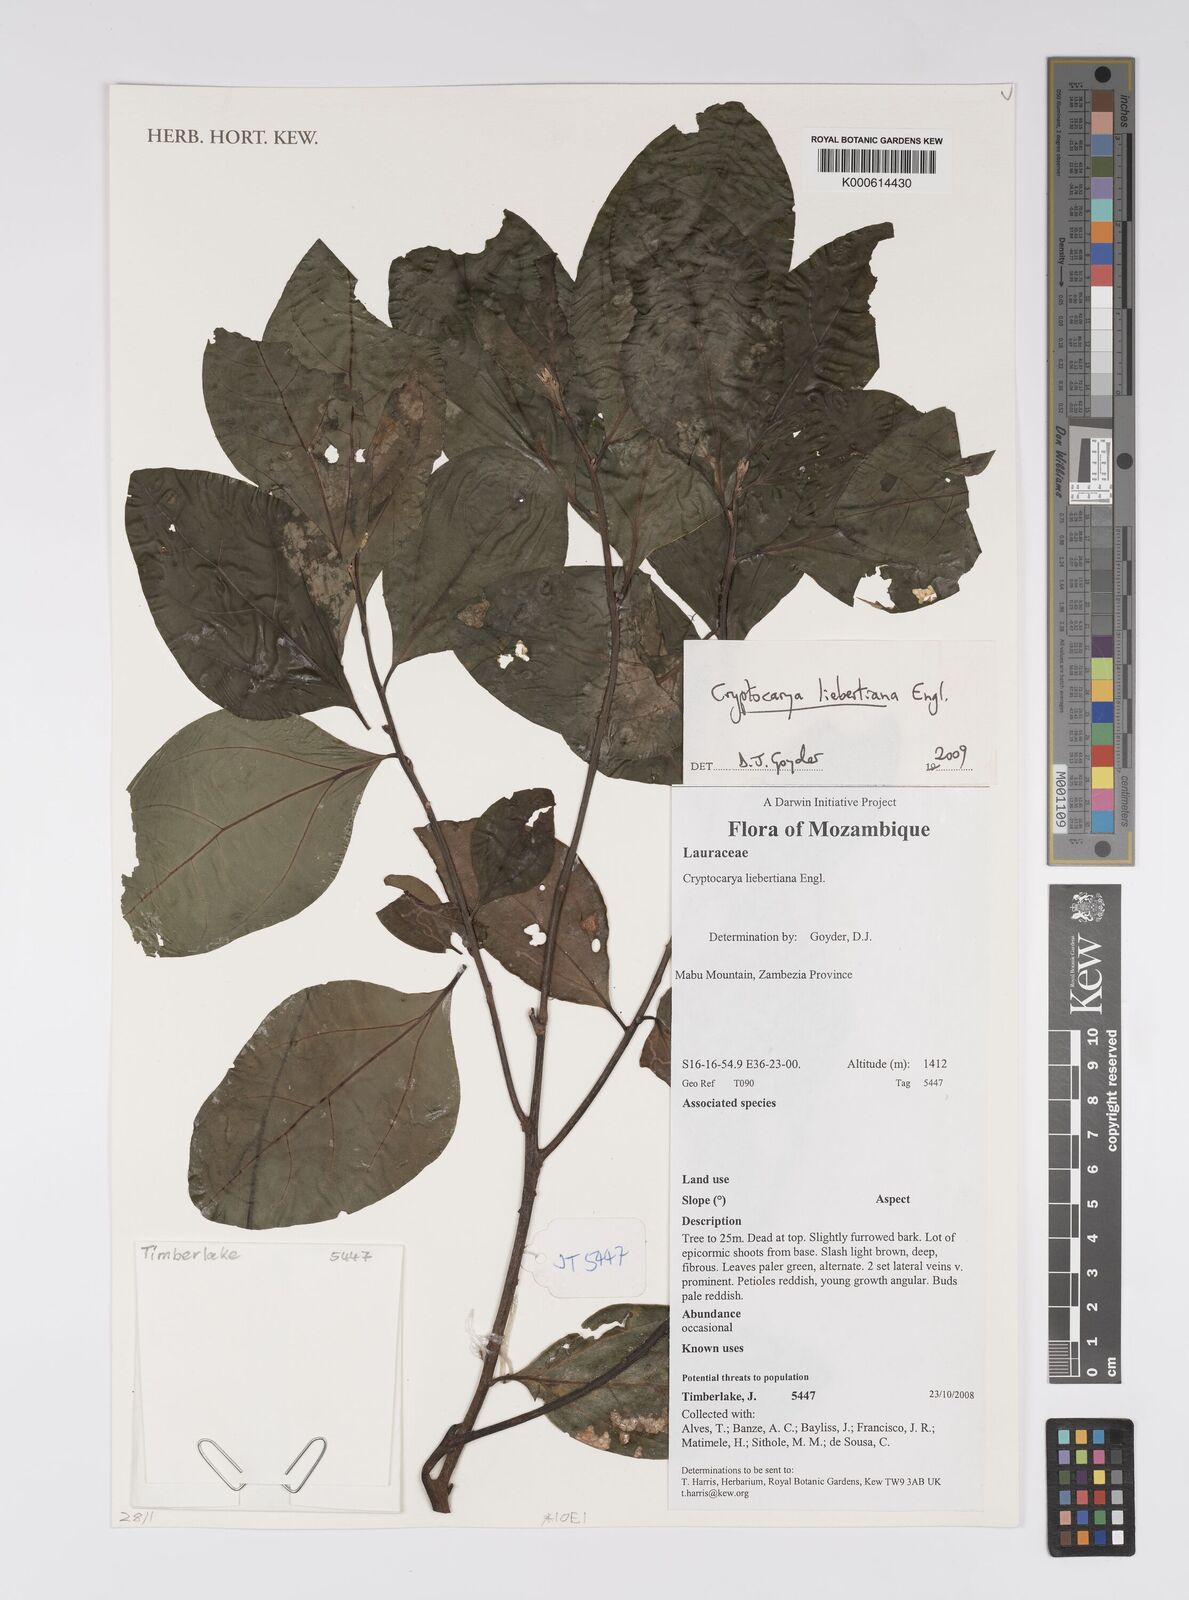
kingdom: Plantae
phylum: Tracheophyta
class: Magnoliopsida
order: Laurales
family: Lauraceae
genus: Cryptocarya
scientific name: Cryptocarya liebertiana
